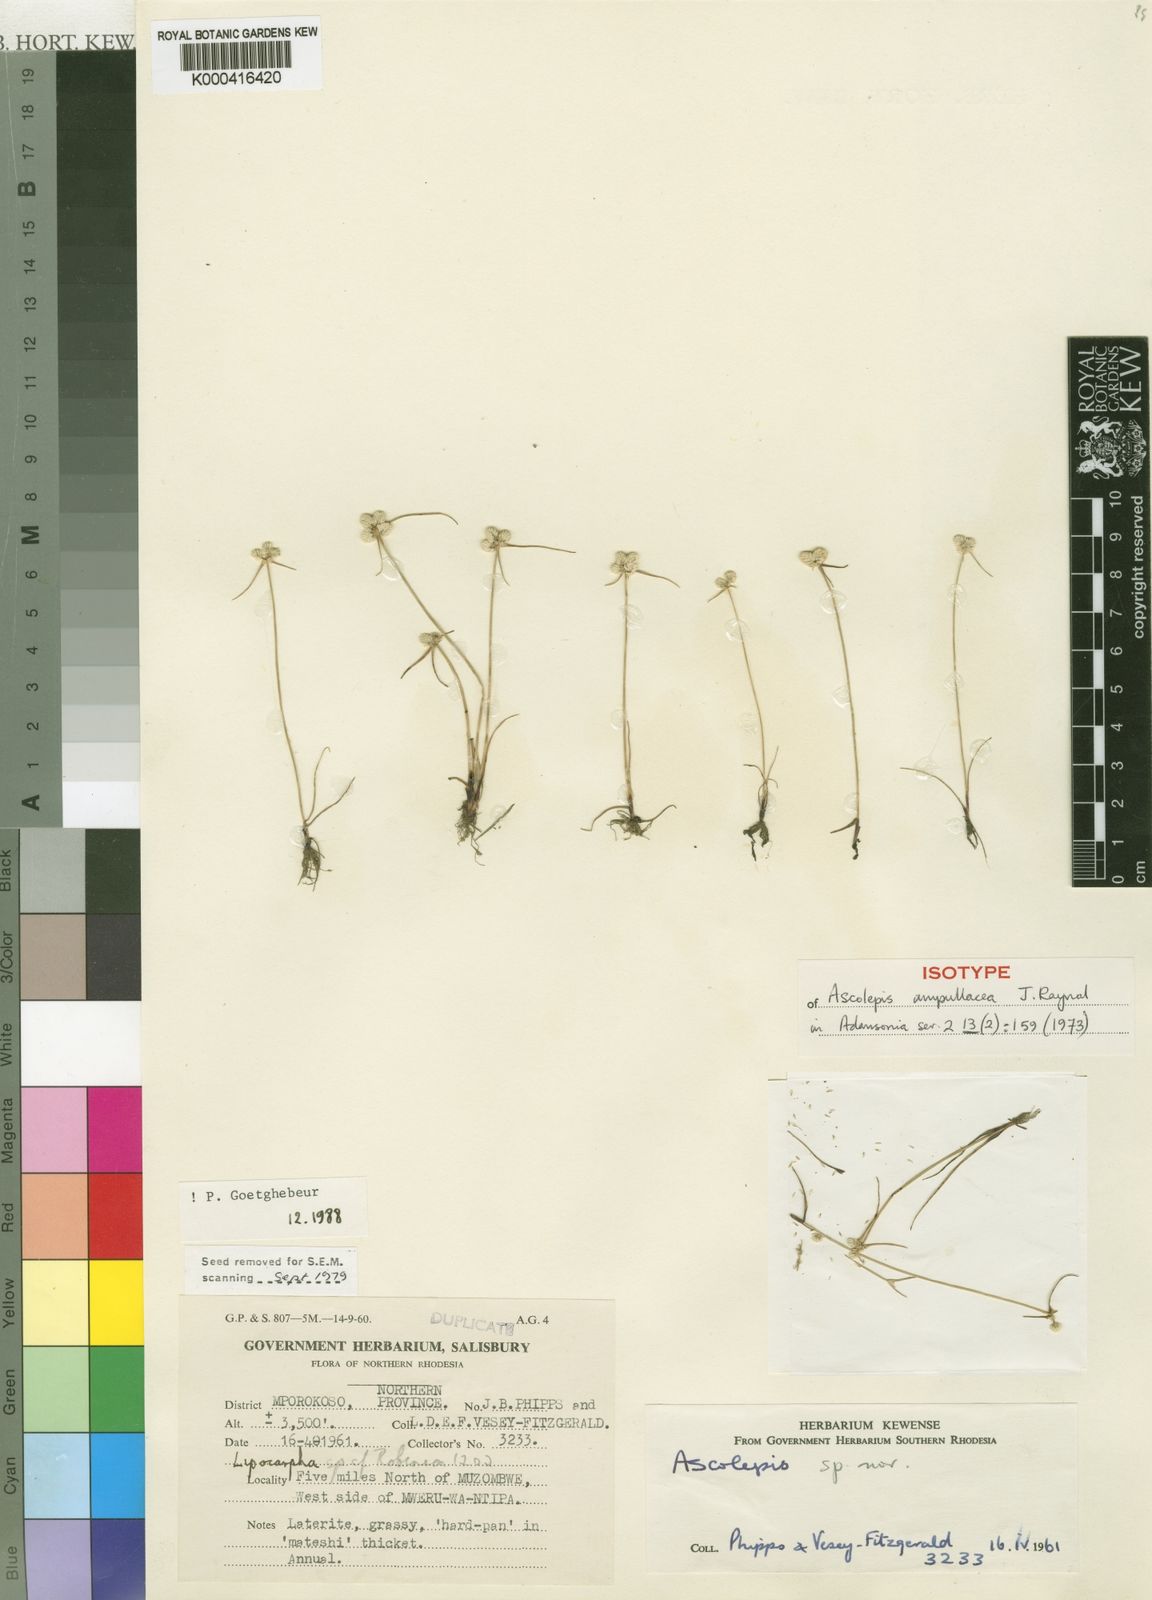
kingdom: Plantae
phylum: Tracheophyta
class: Liliopsida
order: Poales
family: Cyperaceae
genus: Cyperus
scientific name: Cyperus ampullaceus
